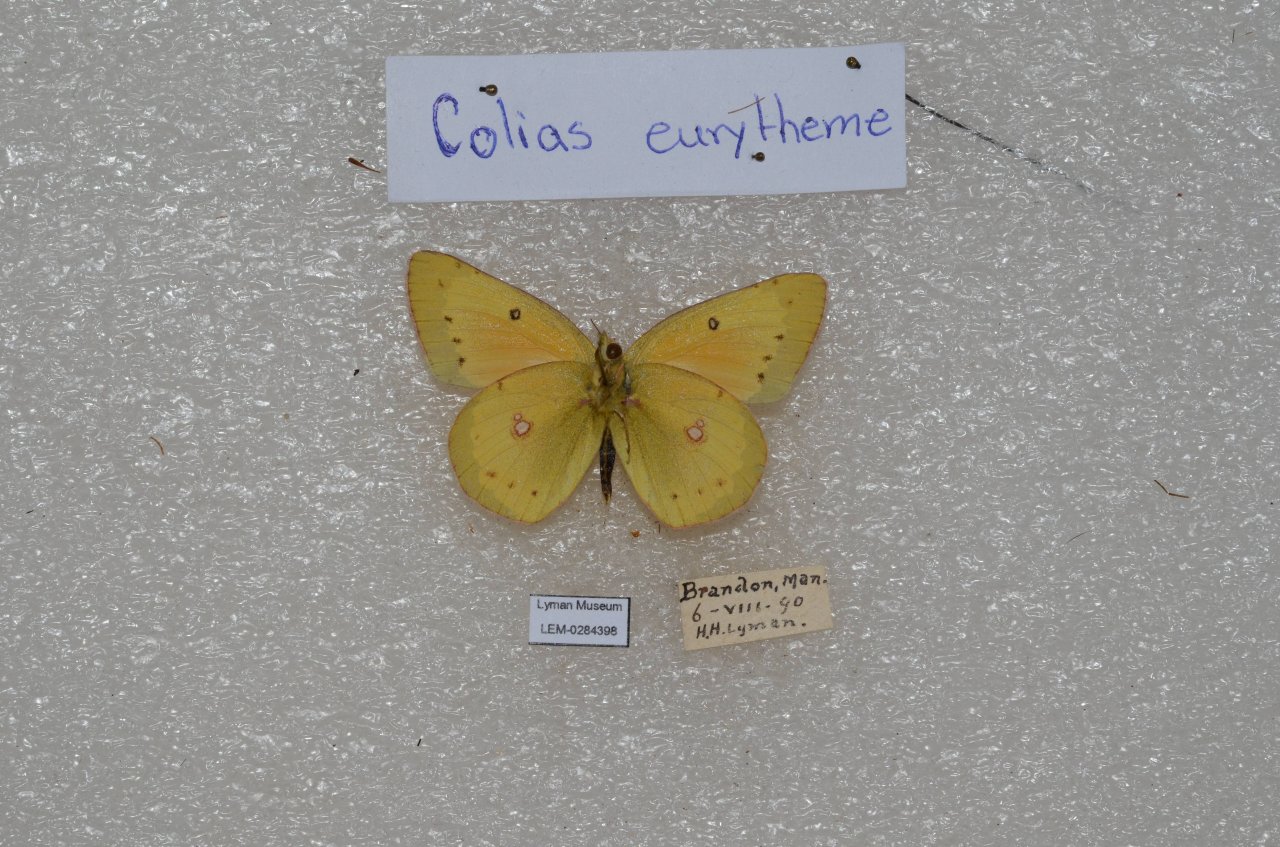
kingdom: Animalia
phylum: Arthropoda
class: Insecta
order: Lepidoptera
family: Pieridae
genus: Colias
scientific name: Colias eurytheme
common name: Orange Sulphur
